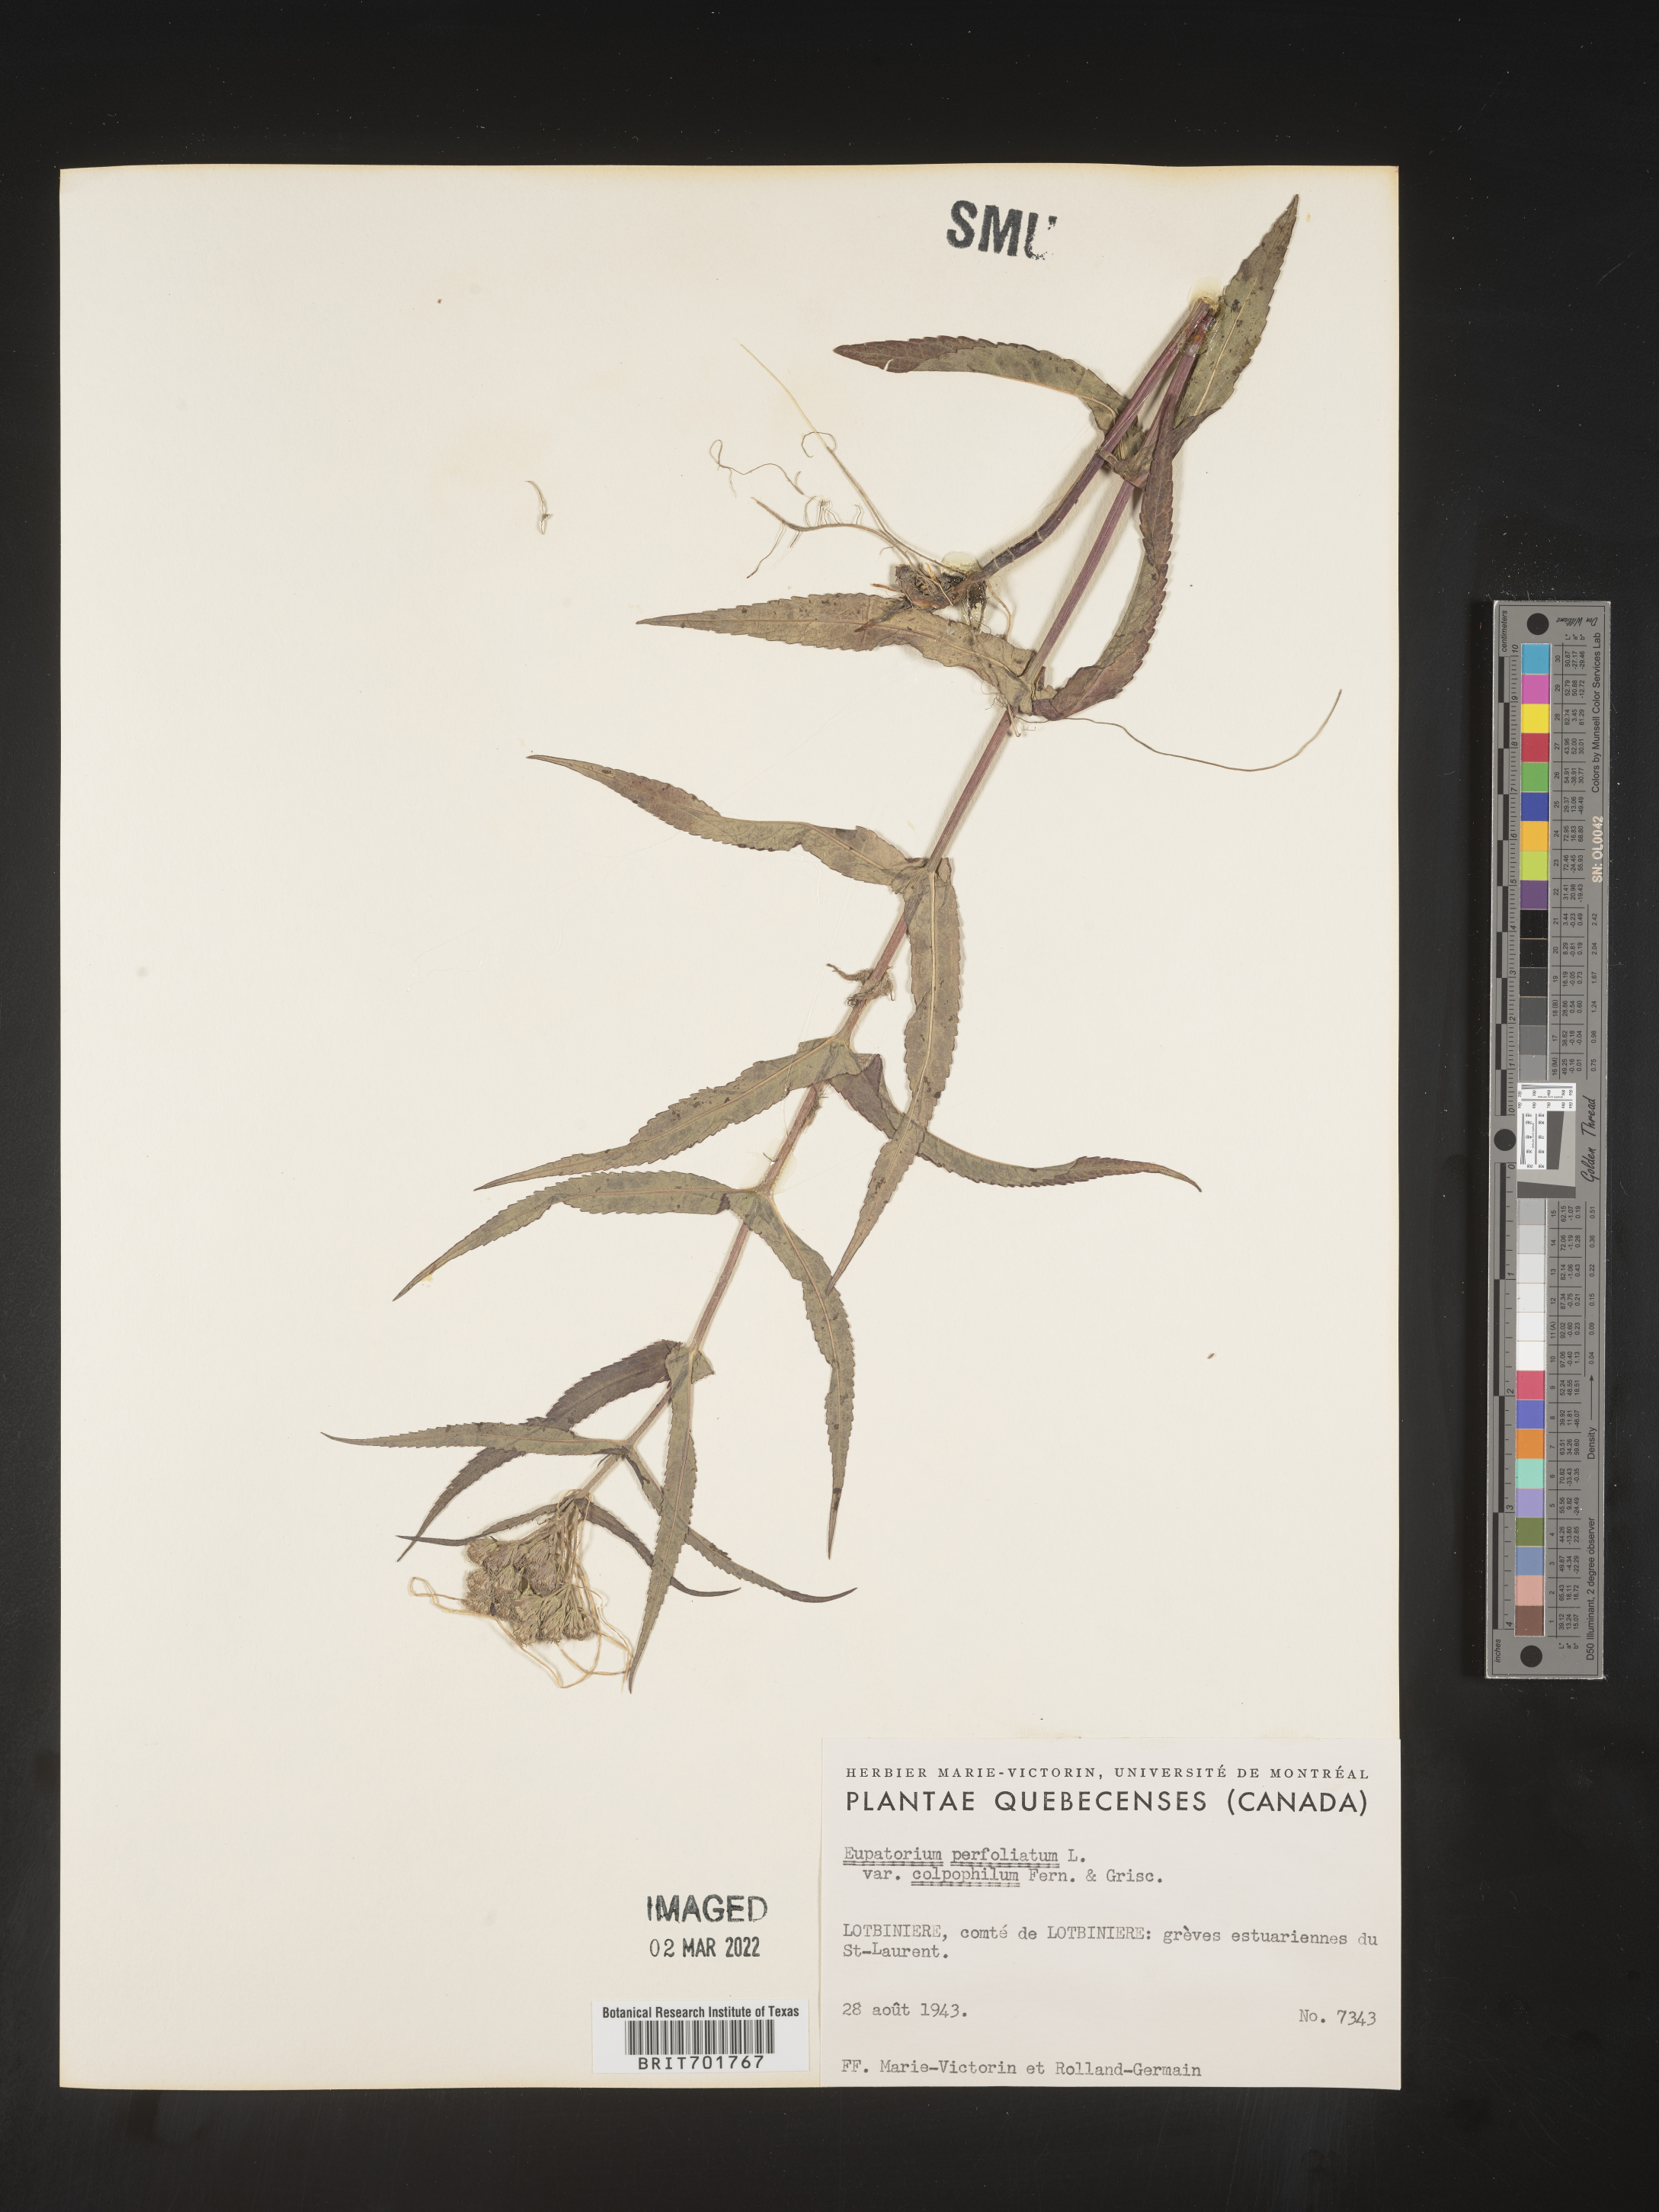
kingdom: Plantae
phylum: Tracheophyta
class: Magnoliopsida
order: Asterales
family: Asteraceae
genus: Eupatorium
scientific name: Eupatorium perfoliatum
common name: Boneset
